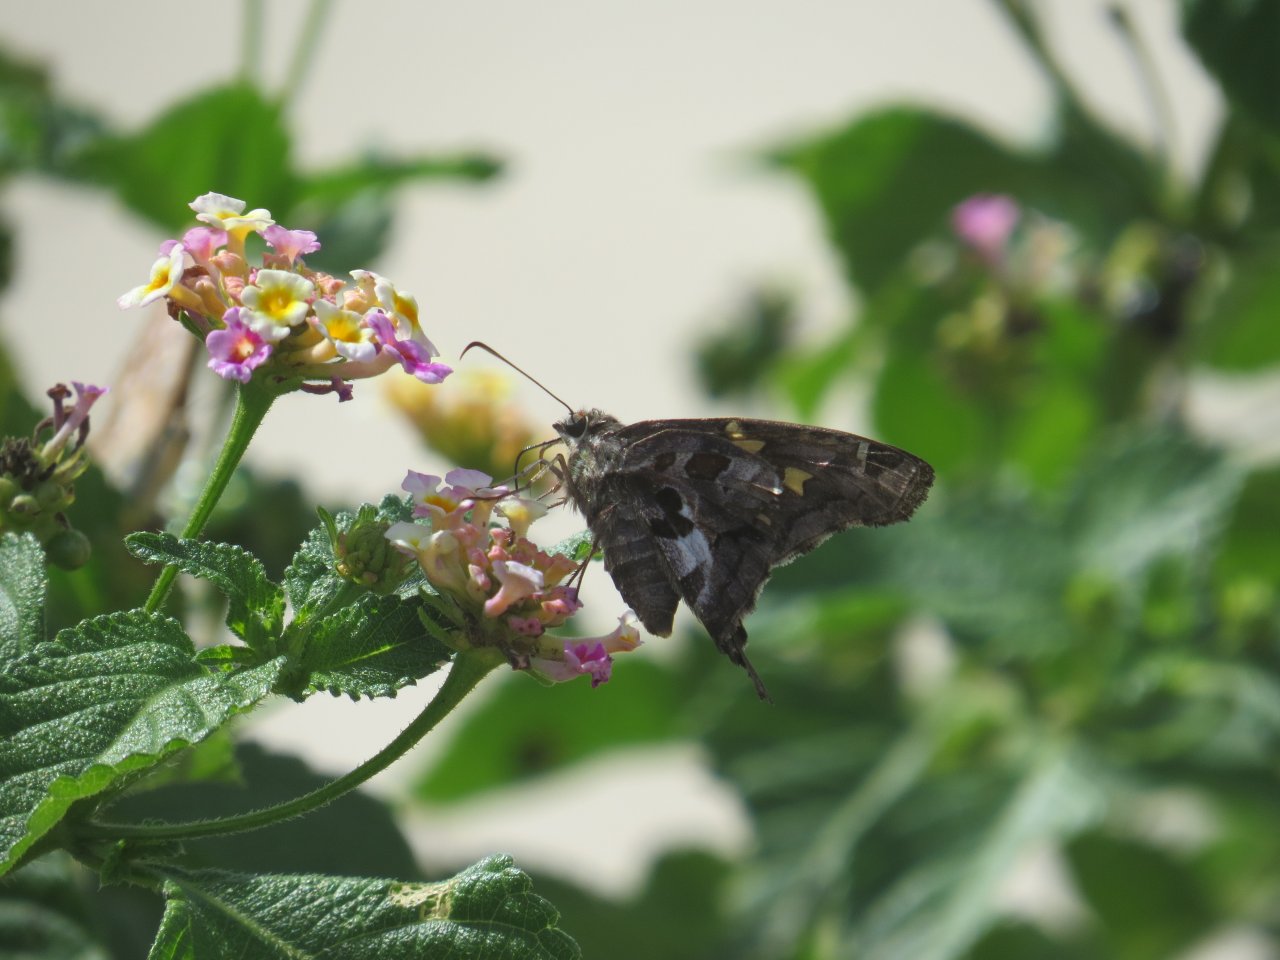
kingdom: Animalia
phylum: Arthropoda
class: Insecta
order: Lepidoptera
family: Hesperiidae
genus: Chioides
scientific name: Chioides zilpa
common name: Zilpa Longtail
